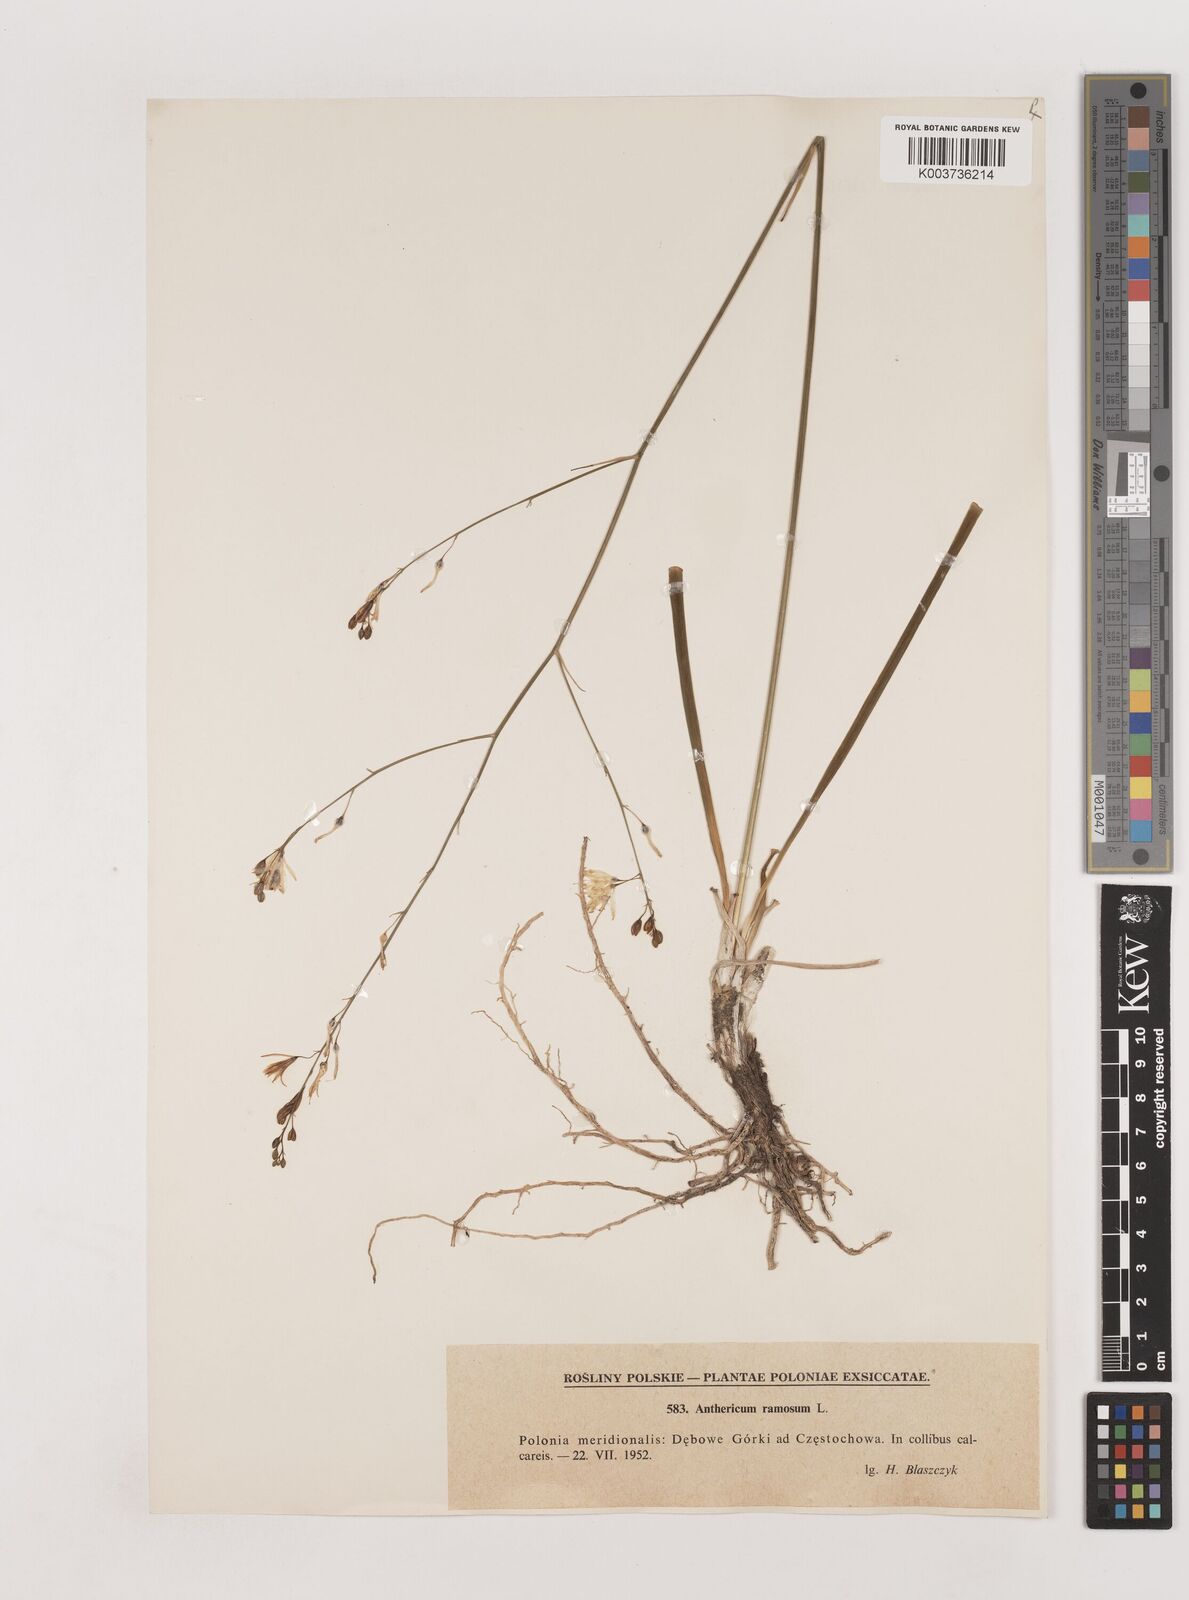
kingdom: Plantae
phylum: Tracheophyta
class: Liliopsida
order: Asparagales
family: Asparagaceae
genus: Anthericum
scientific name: Anthericum ramosum
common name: Branched st. bernard's-lily
